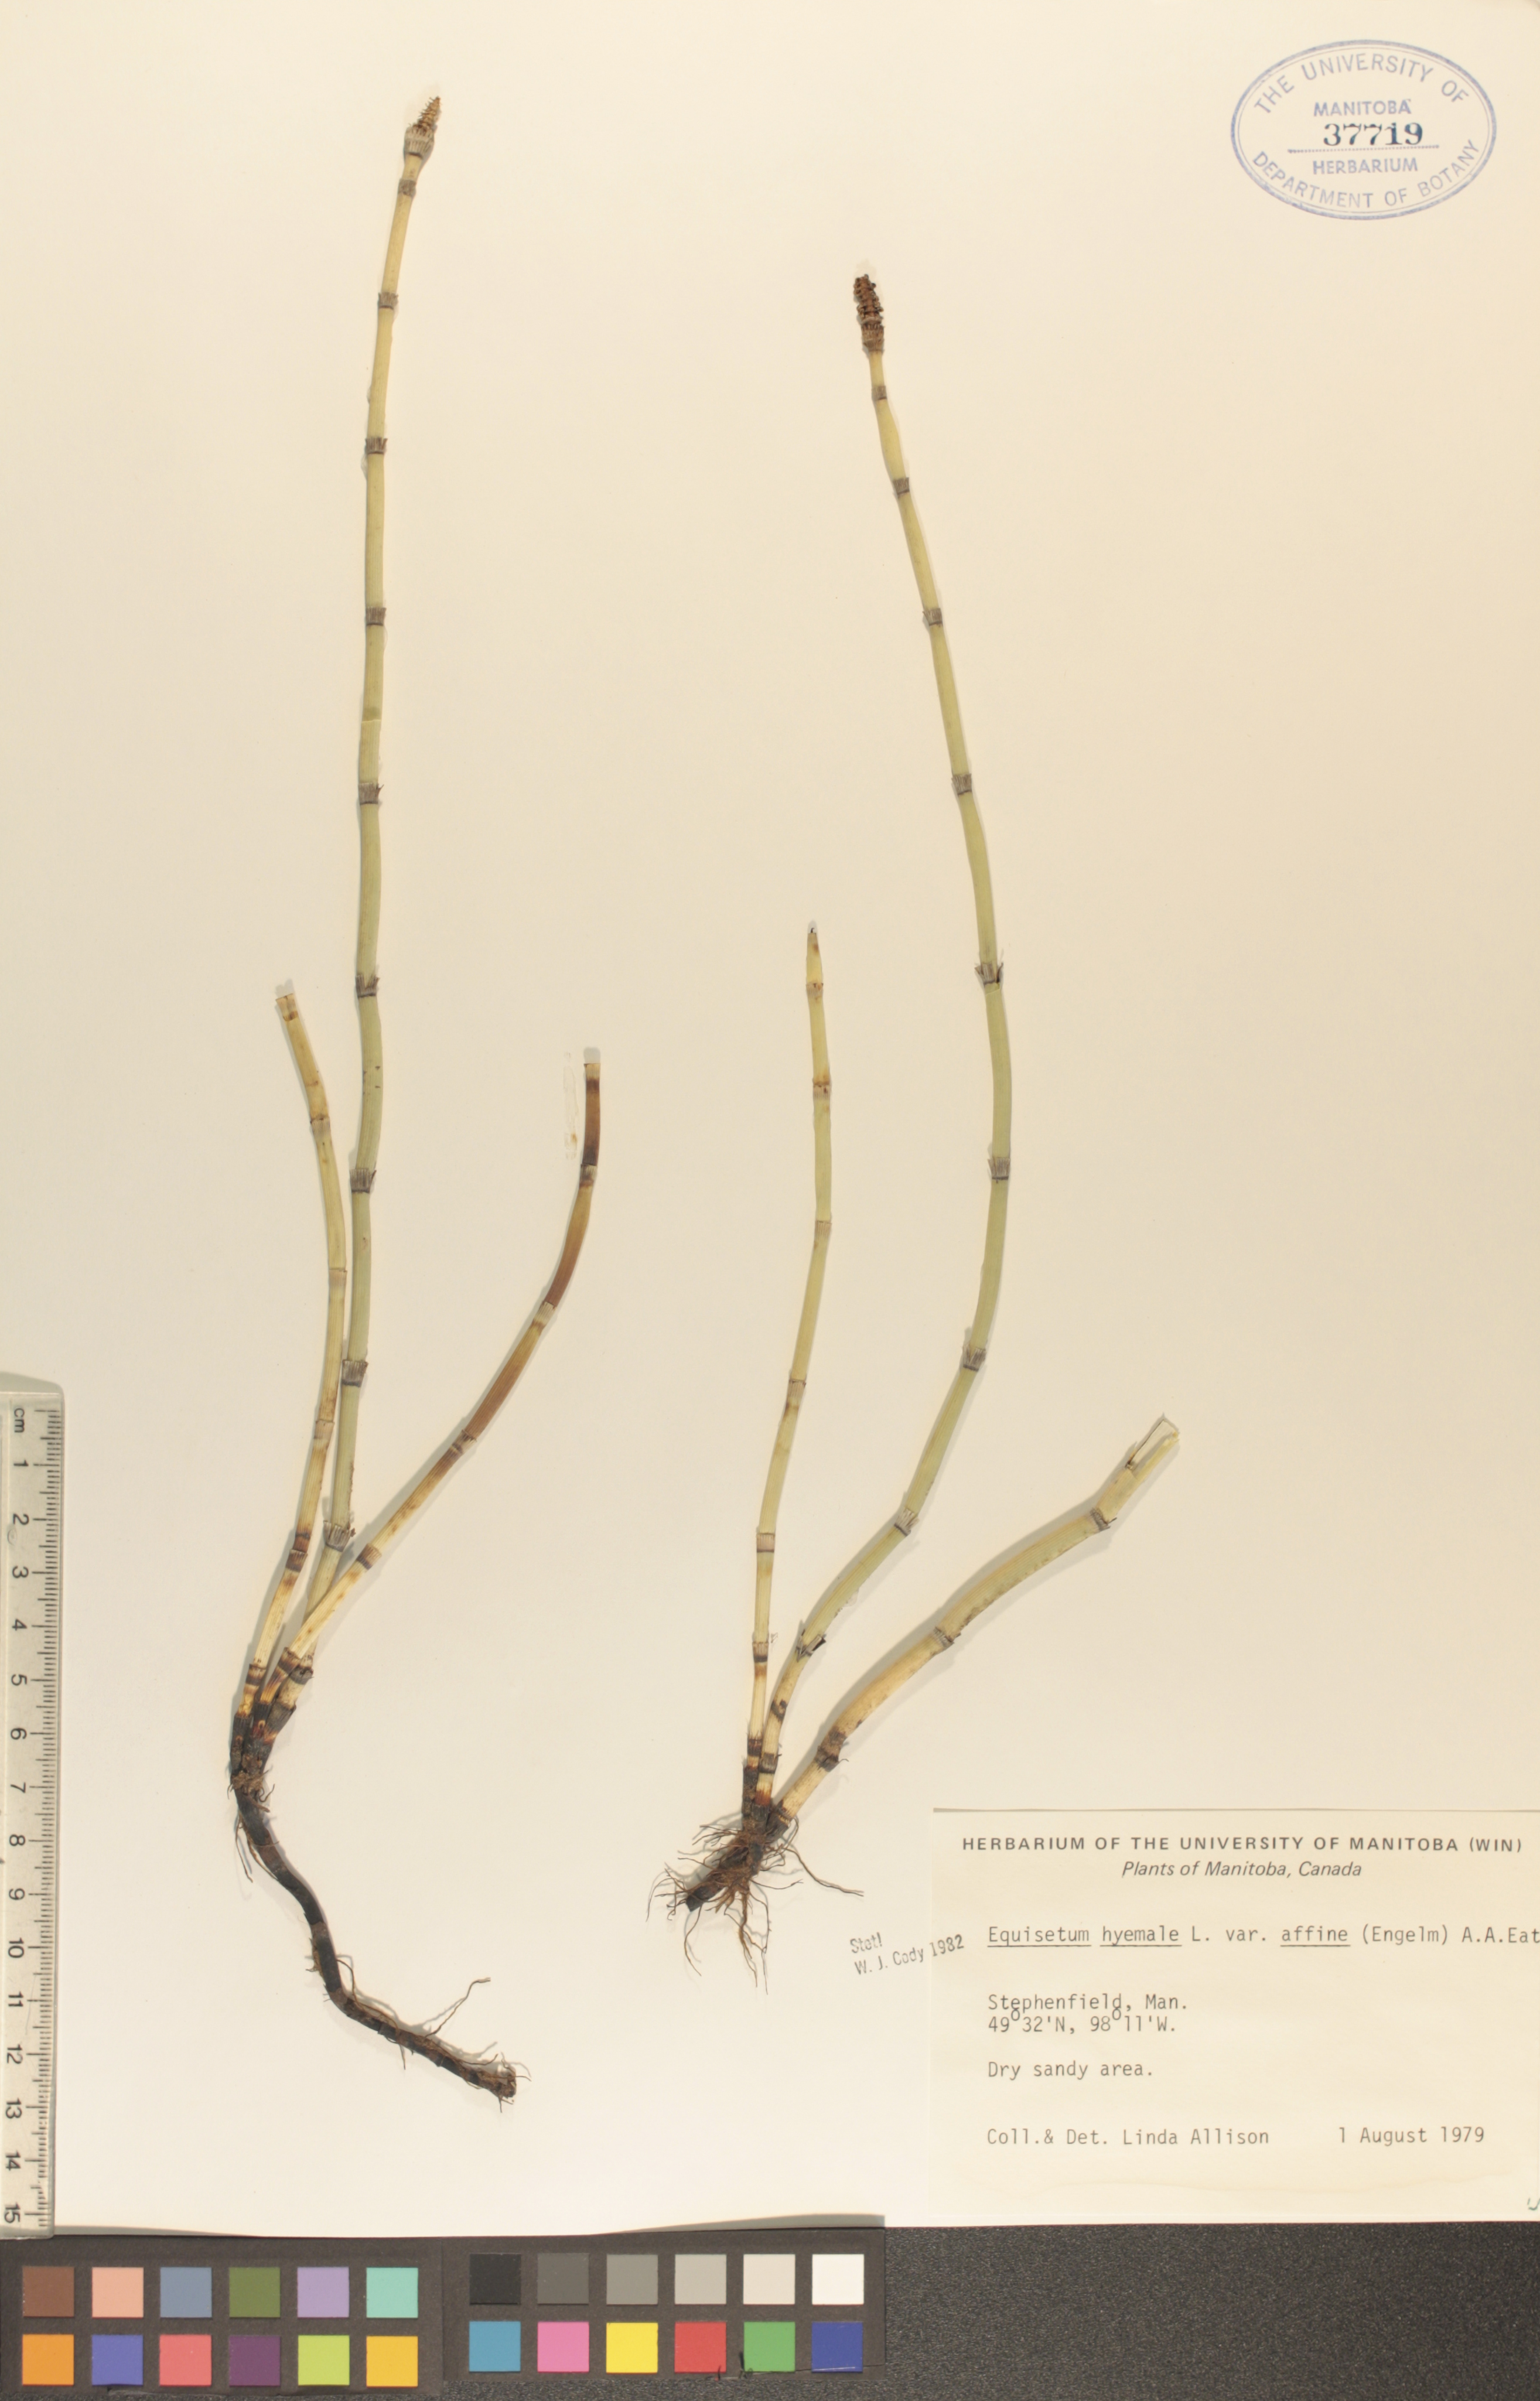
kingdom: Plantae
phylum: Tracheophyta
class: Polypodiopsida
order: Equisetales
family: Equisetaceae
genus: Equisetum
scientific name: Equisetum praealtum
